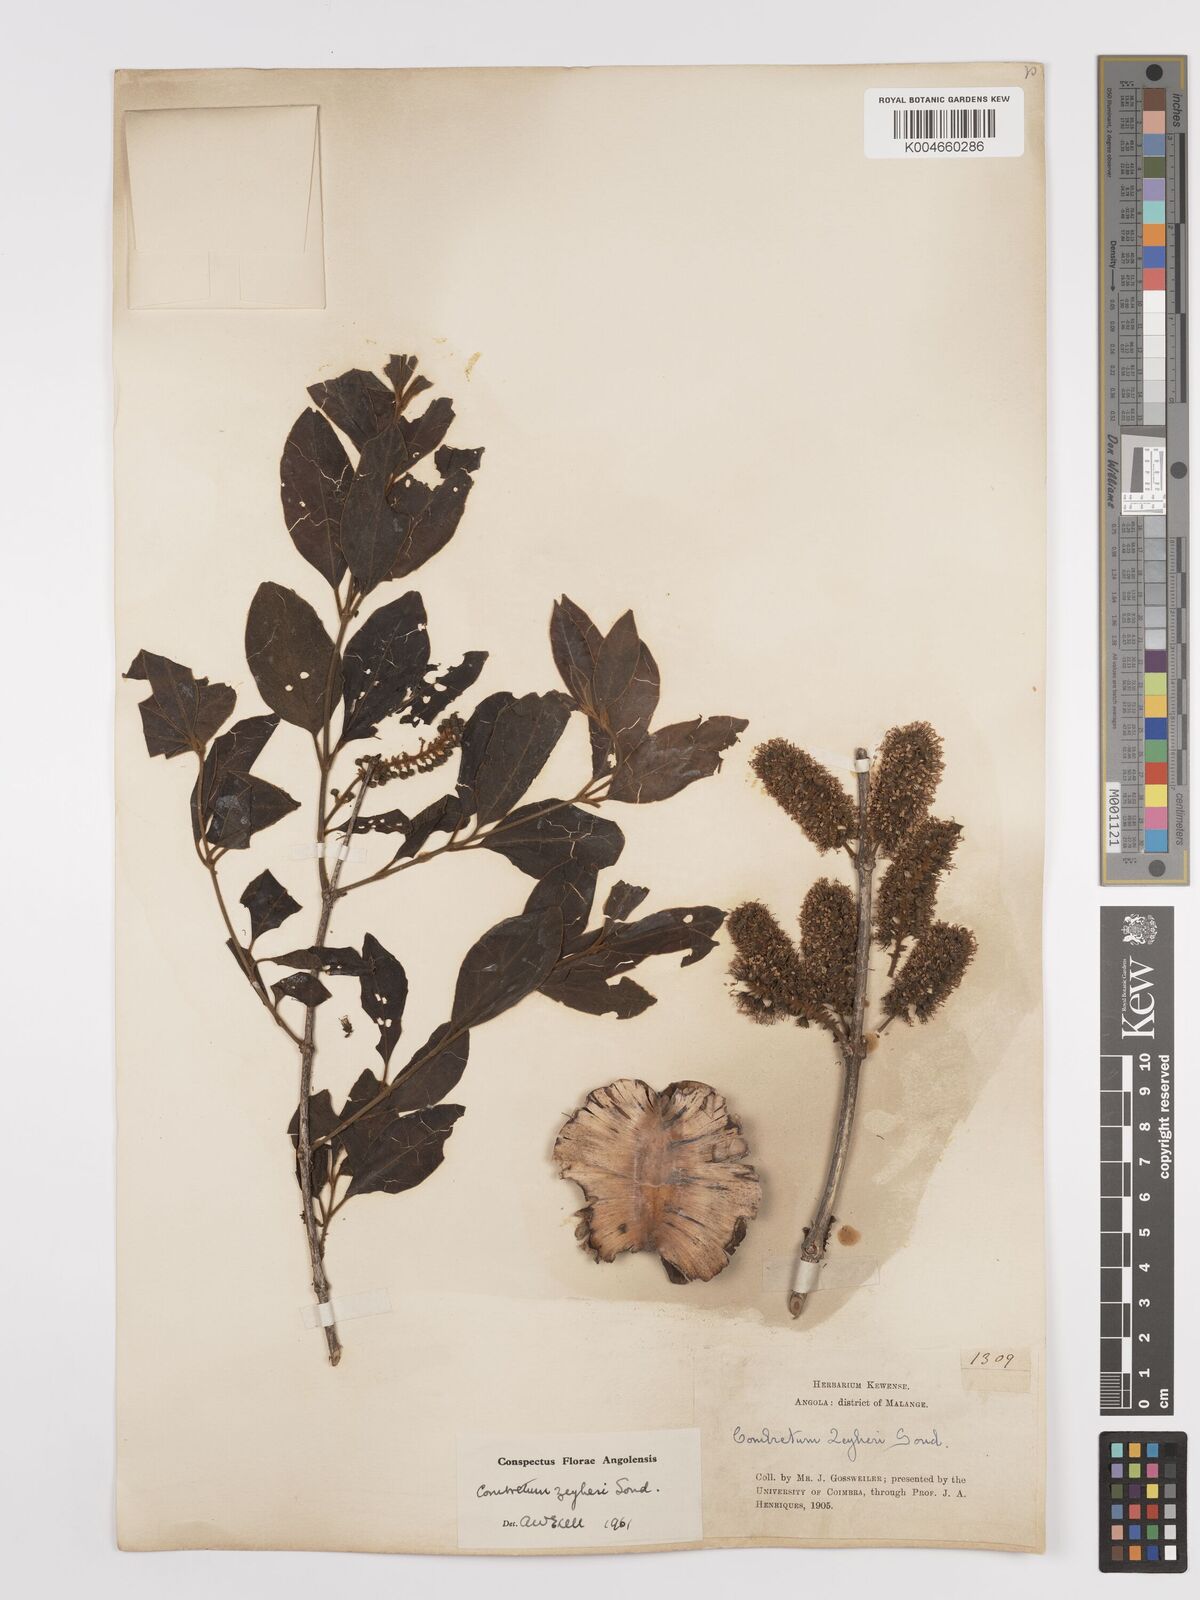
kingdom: Plantae
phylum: Tracheophyta
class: Magnoliopsida
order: Myrtales
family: Combretaceae
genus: Combretum
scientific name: Combretum zeyheri
